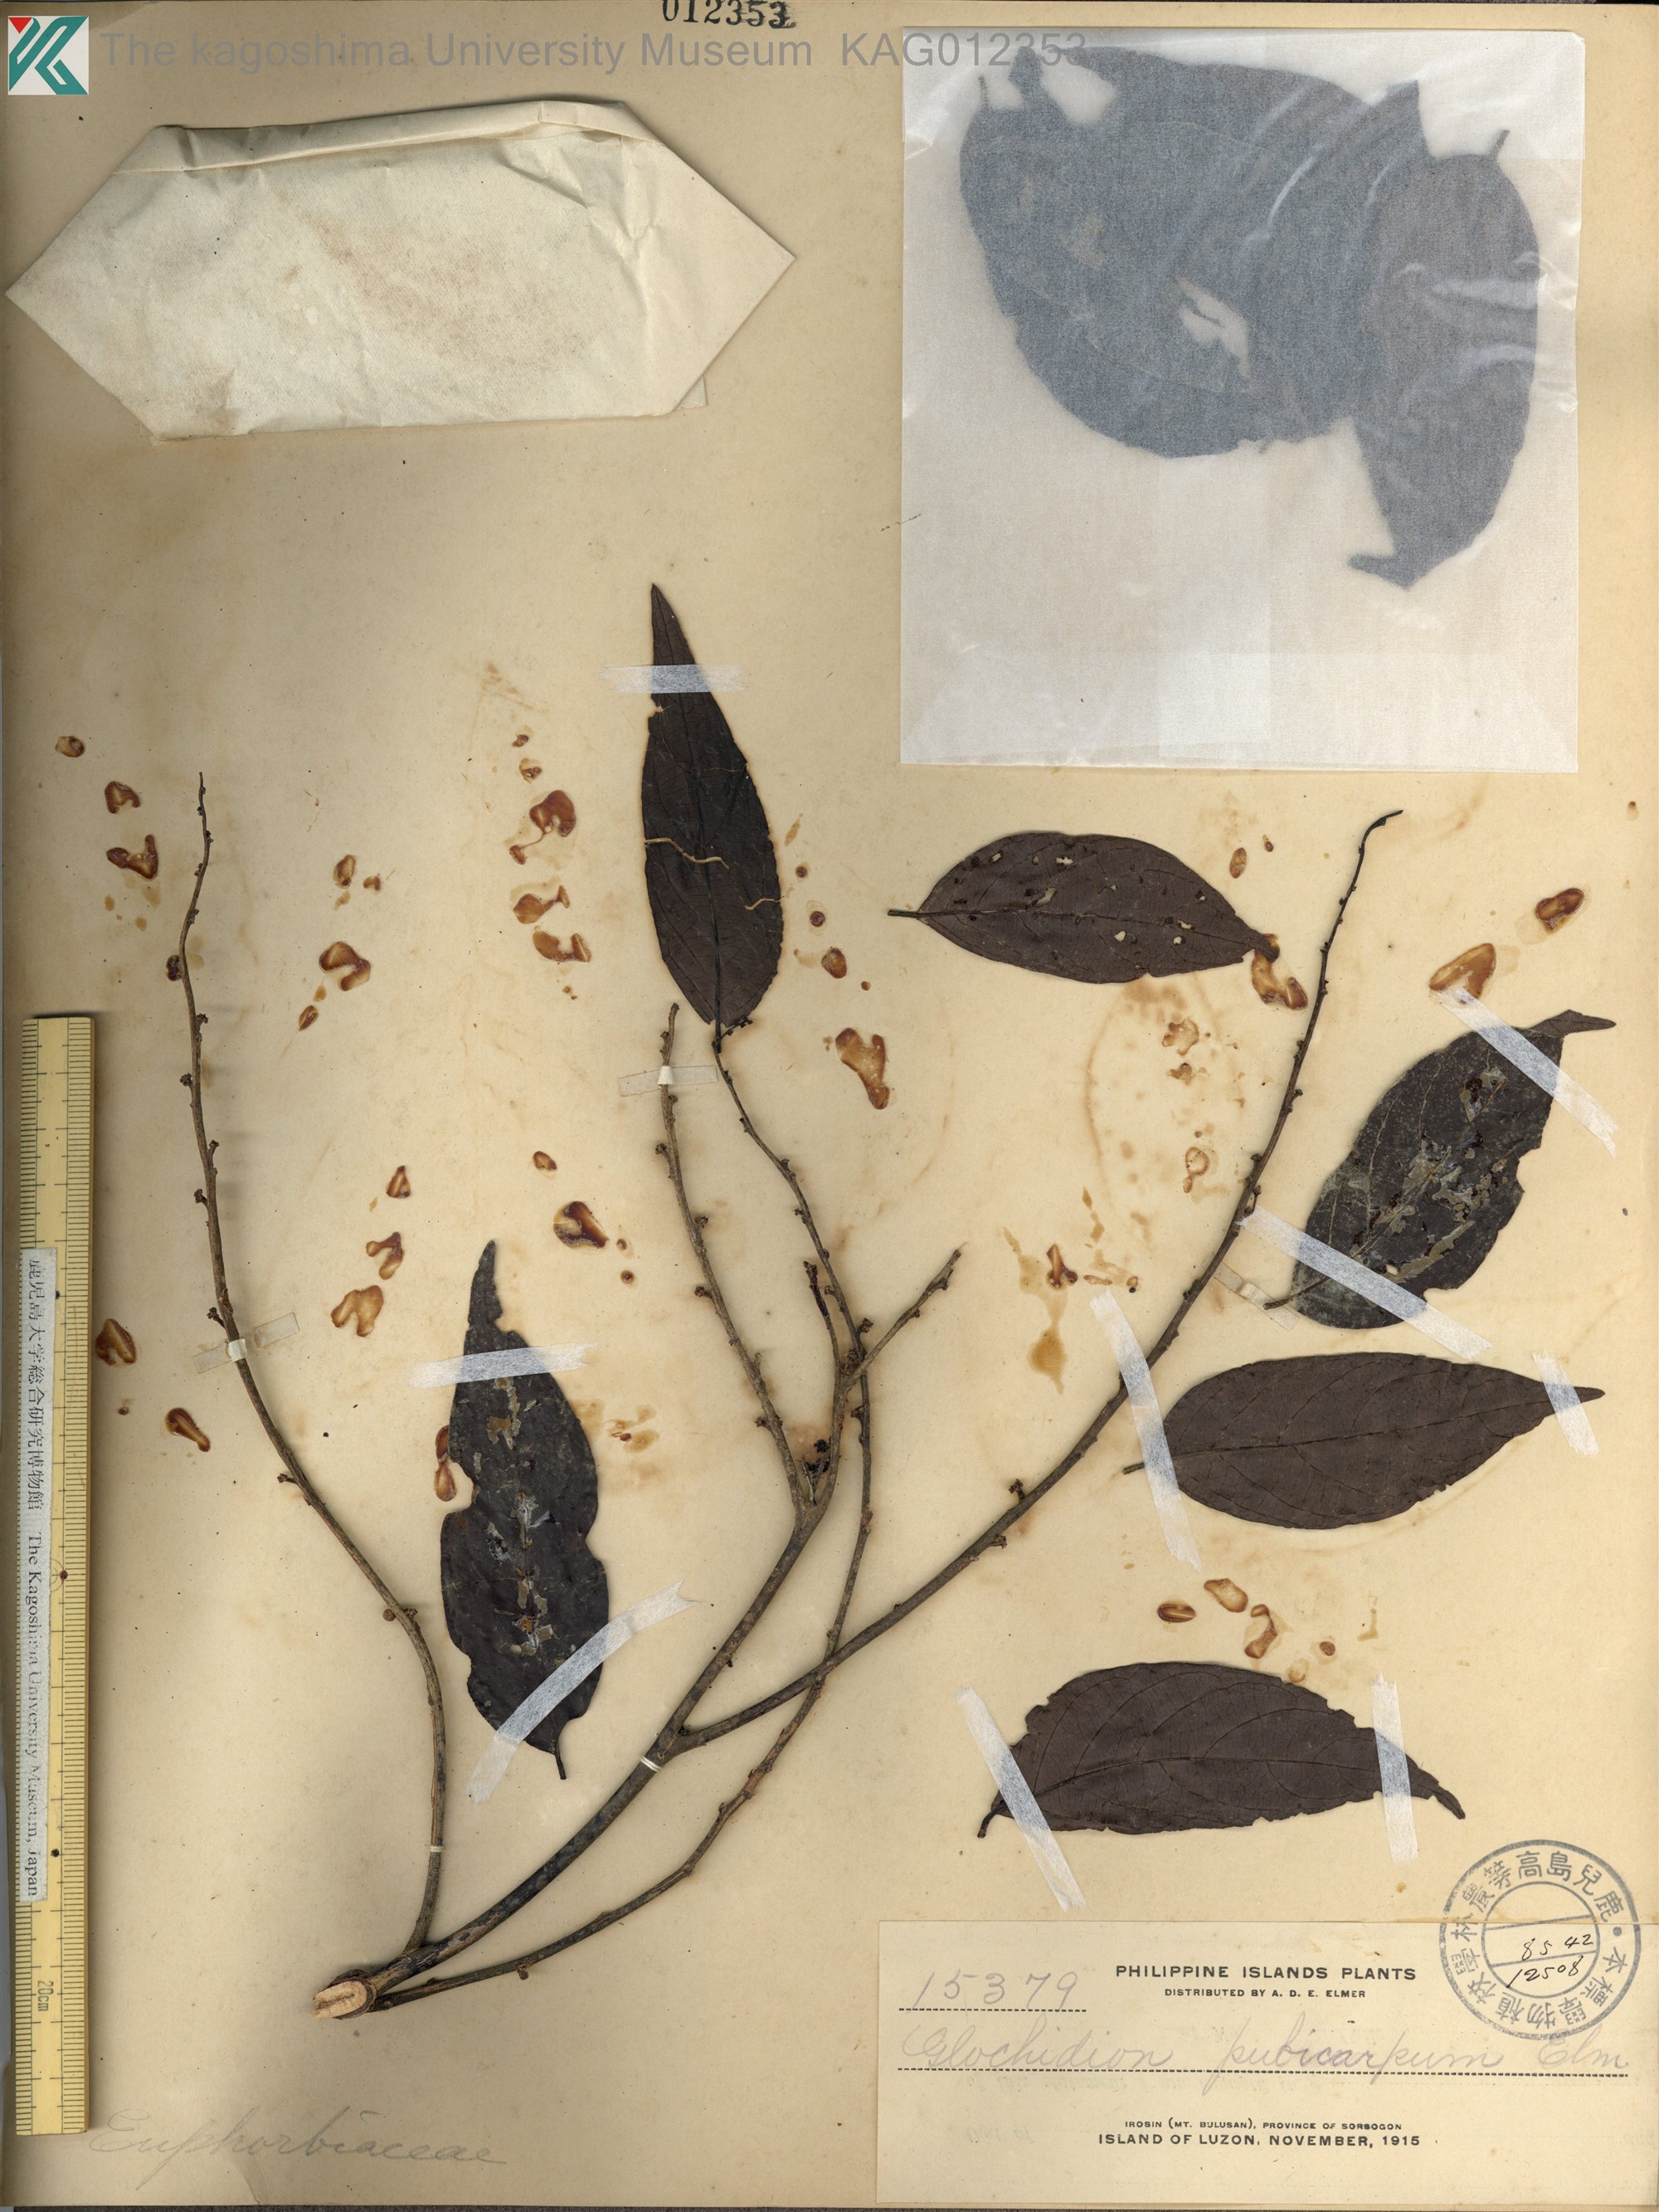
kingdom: Plantae
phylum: Tracheophyta
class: Magnoliopsida
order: Malpighiales
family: Phyllanthaceae
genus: Glochidion
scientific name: Glochidion pubicapsa
